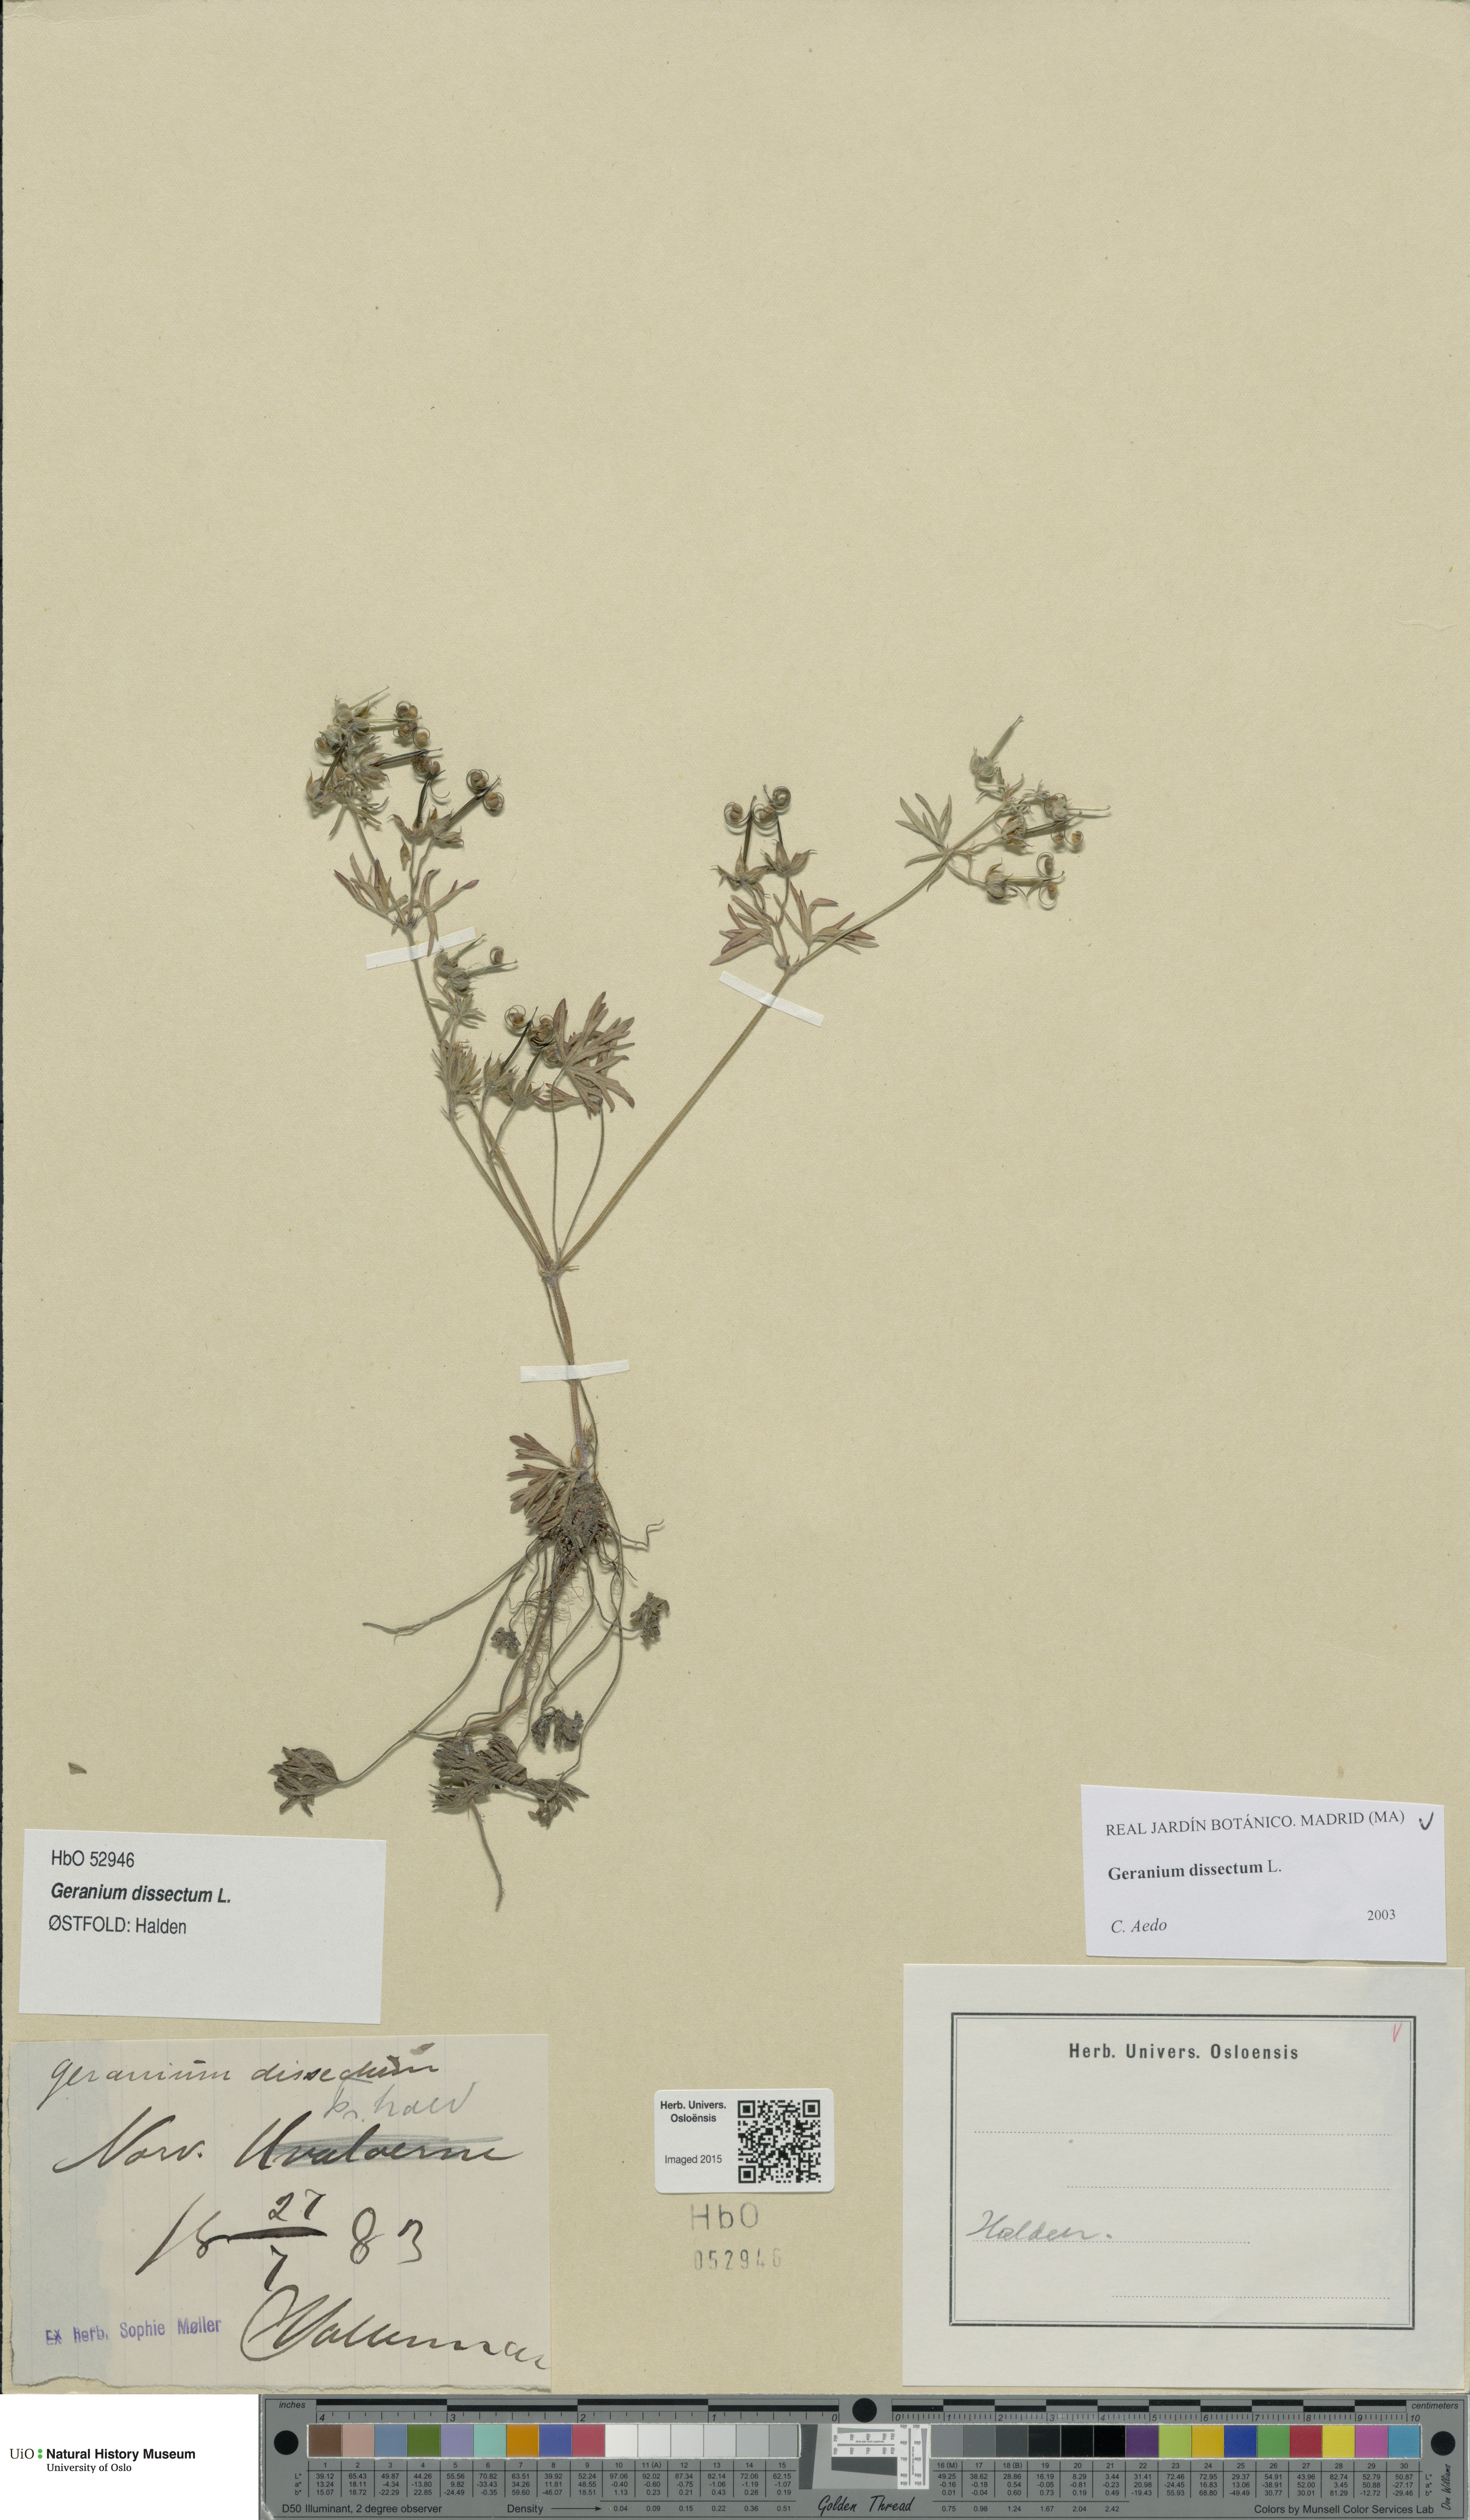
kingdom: Plantae
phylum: Tracheophyta
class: Magnoliopsida
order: Geraniales
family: Geraniaceae
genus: Geranium
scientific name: Geranium dissectum
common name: Cut-leaved crane's-bill
